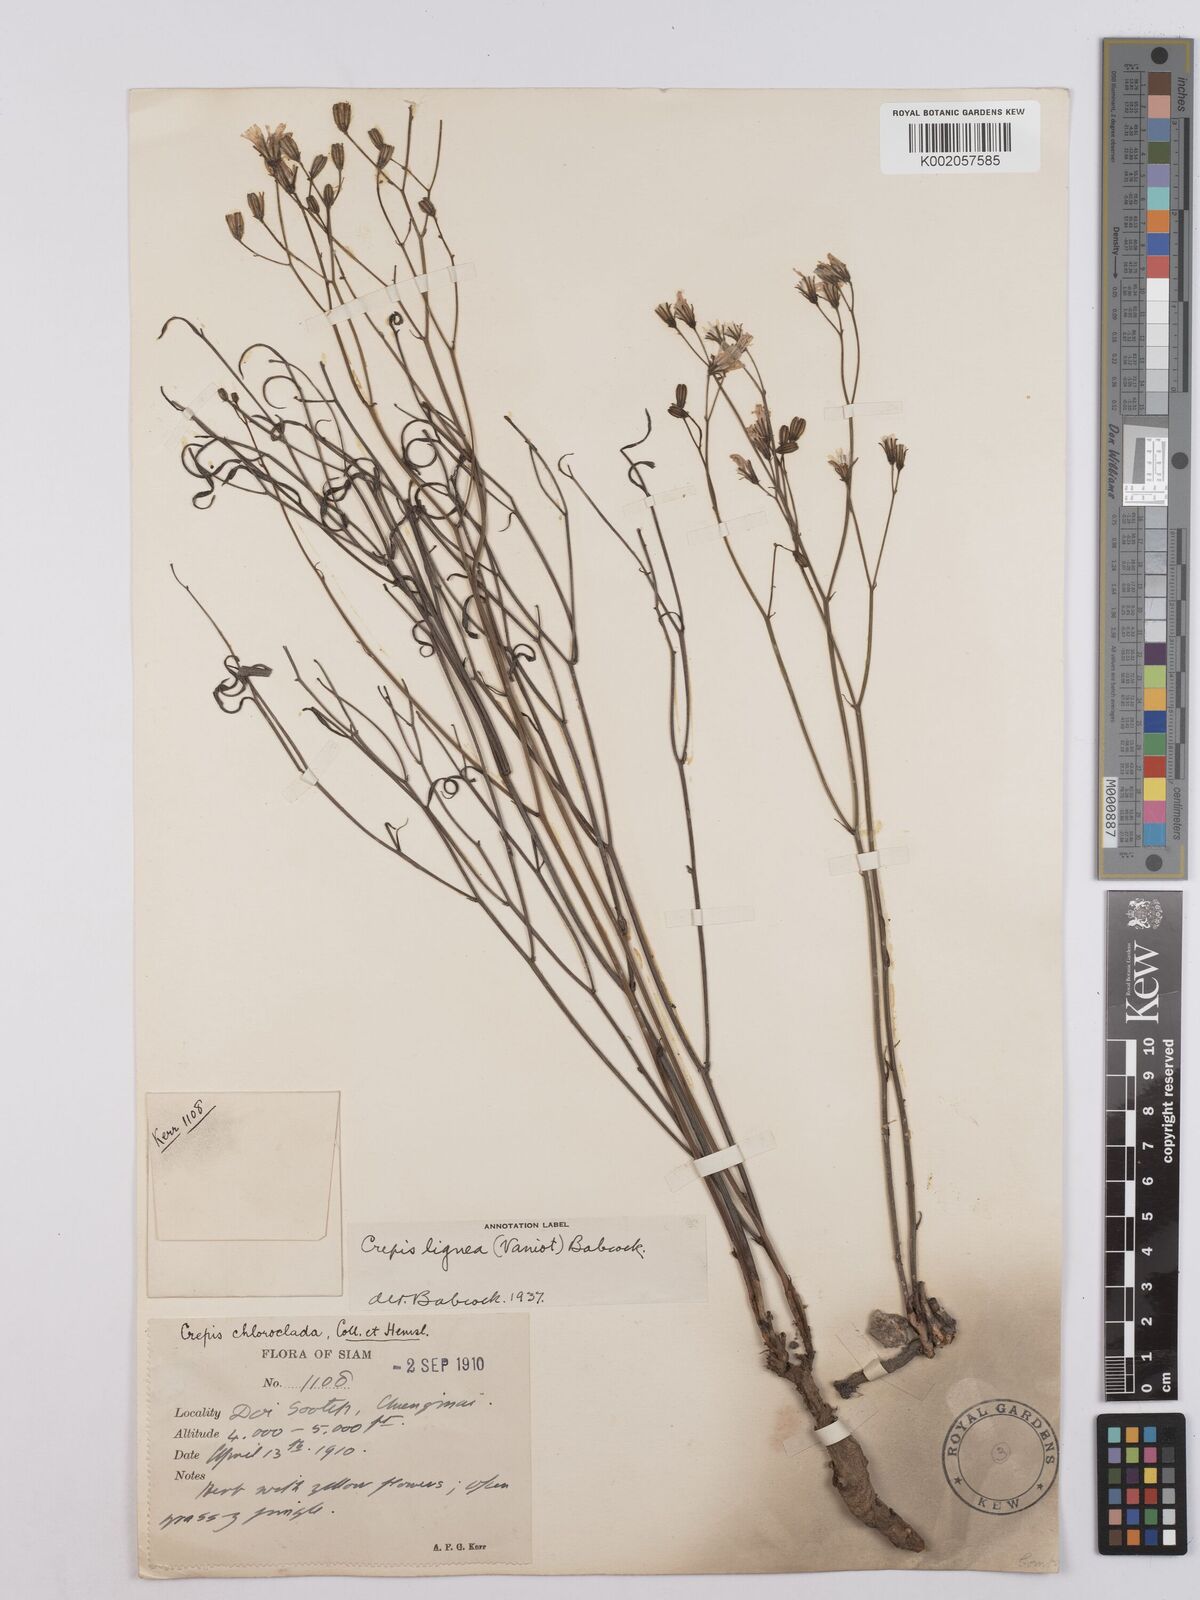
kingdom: Plantae
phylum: Tracheophyta
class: Magnoliopsida
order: Asterales
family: Asteraceae
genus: Crepis
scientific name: Crepis lignea
